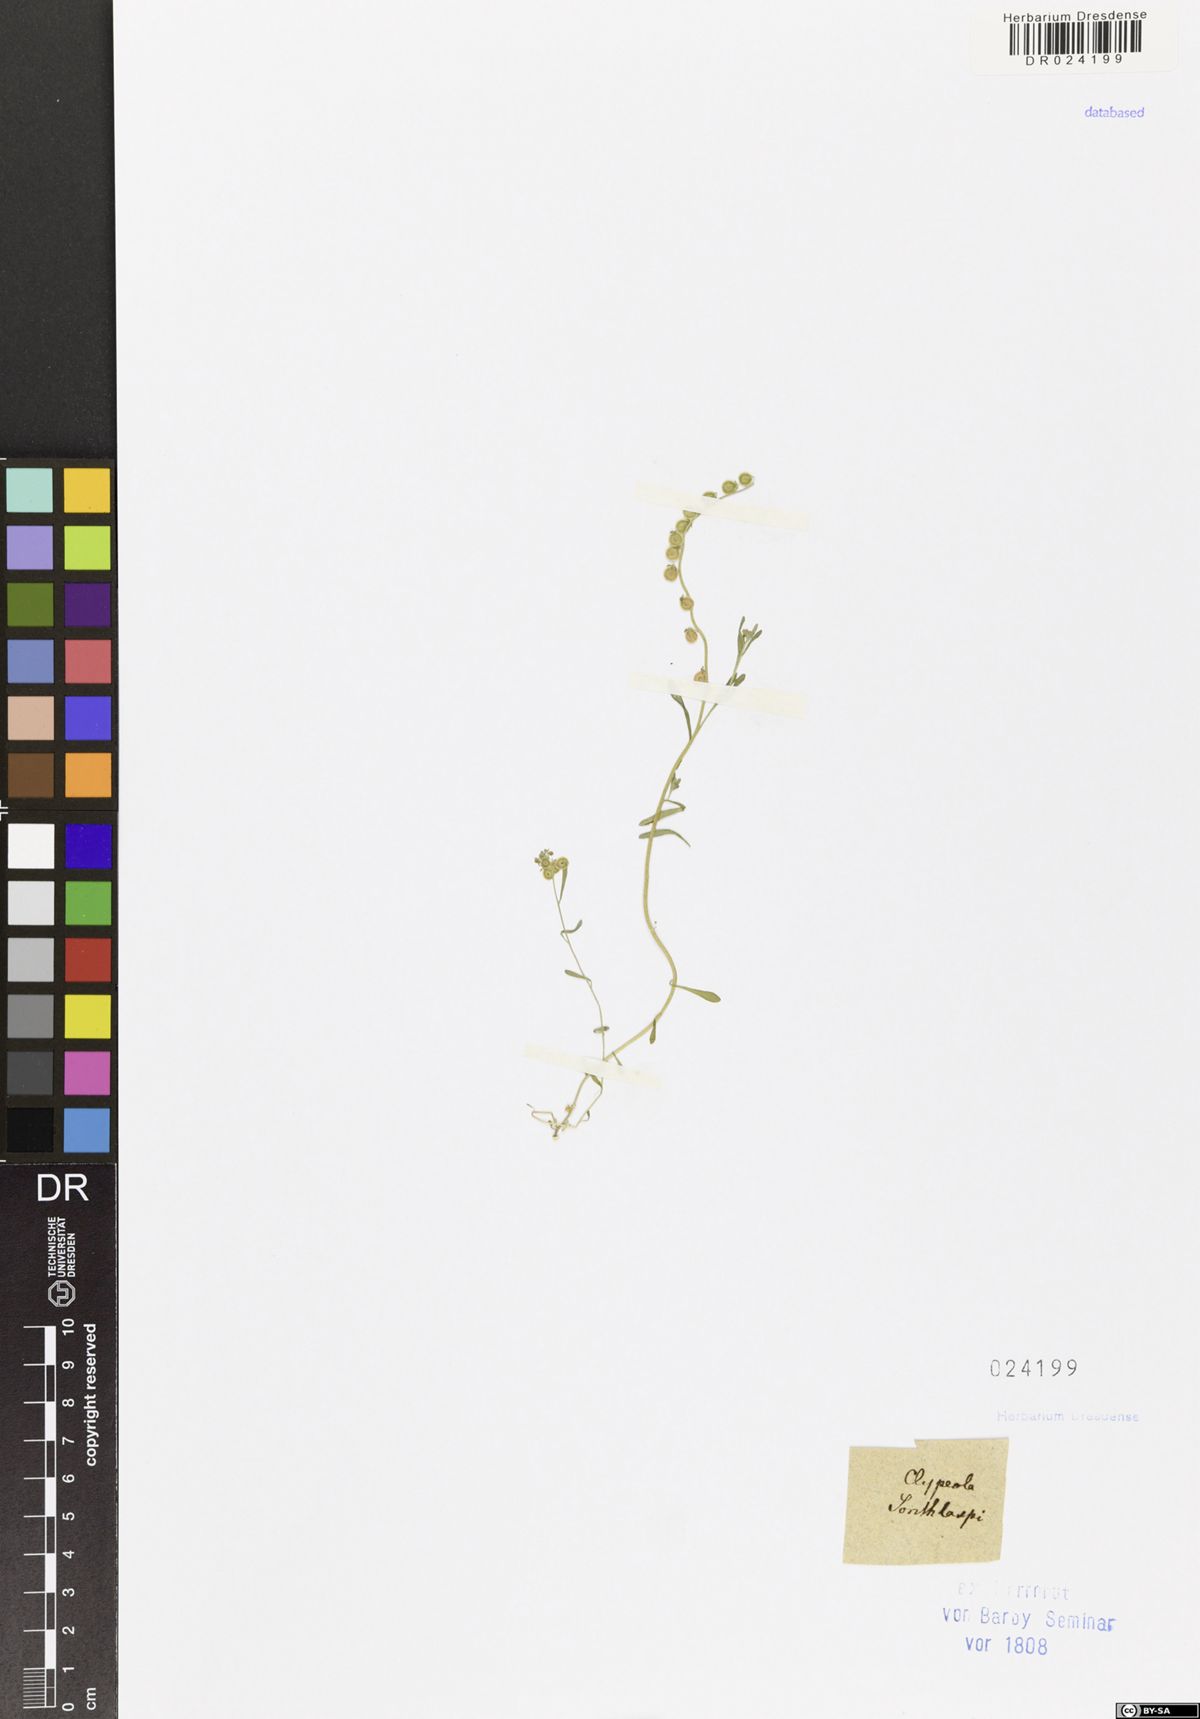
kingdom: Plantae
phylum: Tracheophyta
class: Magnoliopsida
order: Brassicales
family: Brassicaceae
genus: Clypeola
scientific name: Clypeola jonthlaspi
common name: Disk cress
